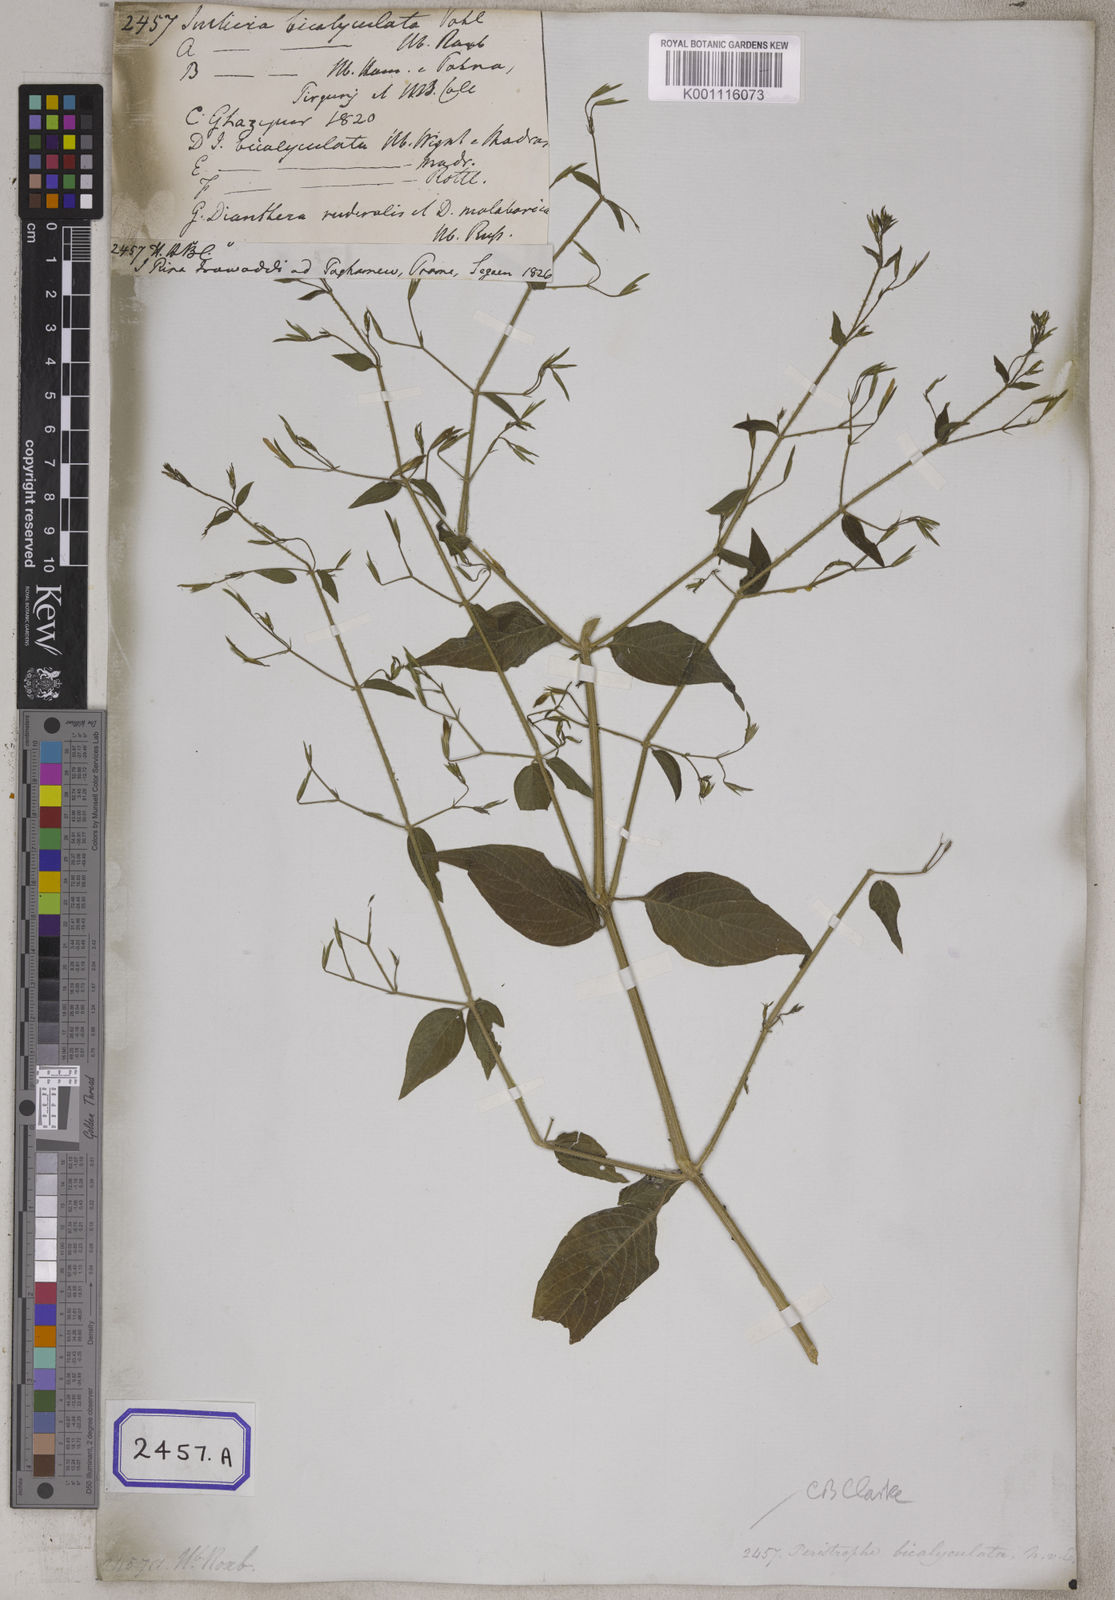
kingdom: Plantae
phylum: Tracheophyta
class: Magnoliopsida
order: Lamiales
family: Acanthaceae
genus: Dicliptera
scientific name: Dicliptera paniculata
